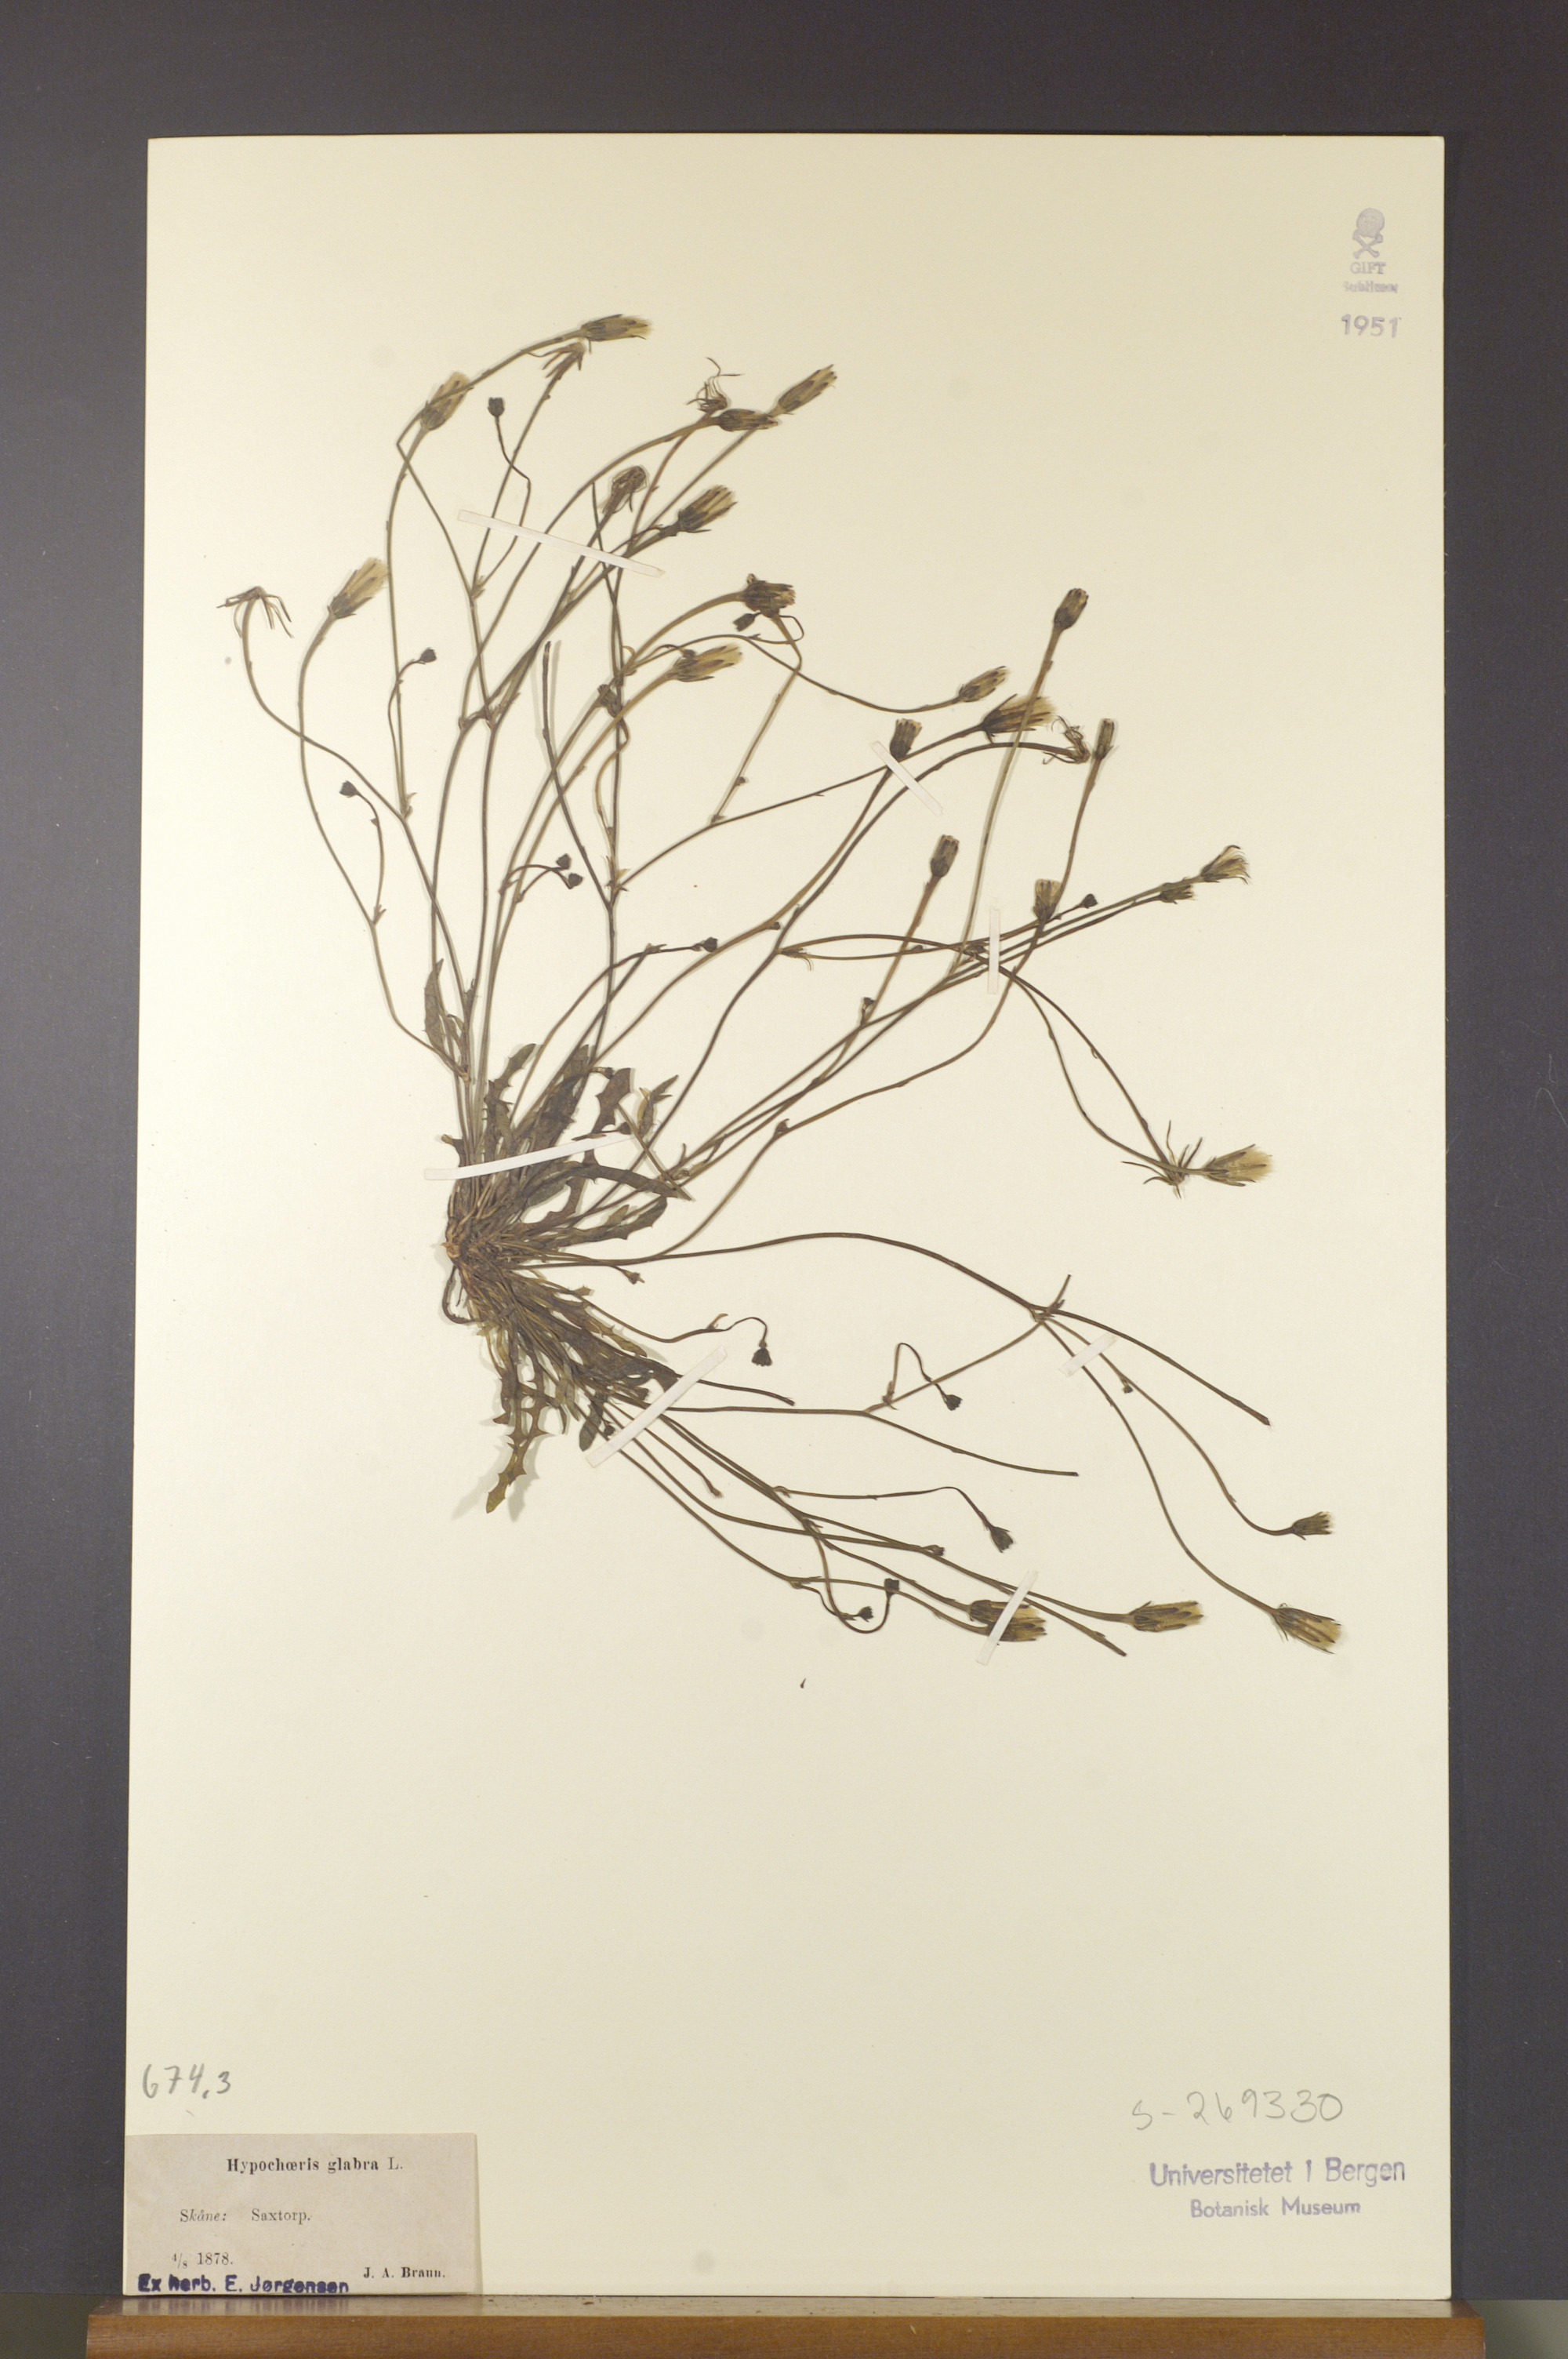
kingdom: Plantae
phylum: Tracheophyta
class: Magnoliopsida
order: Asterales
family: Asteraceae
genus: Hypochaeris
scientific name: Hypochaeris glabra
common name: Smooth catsear
